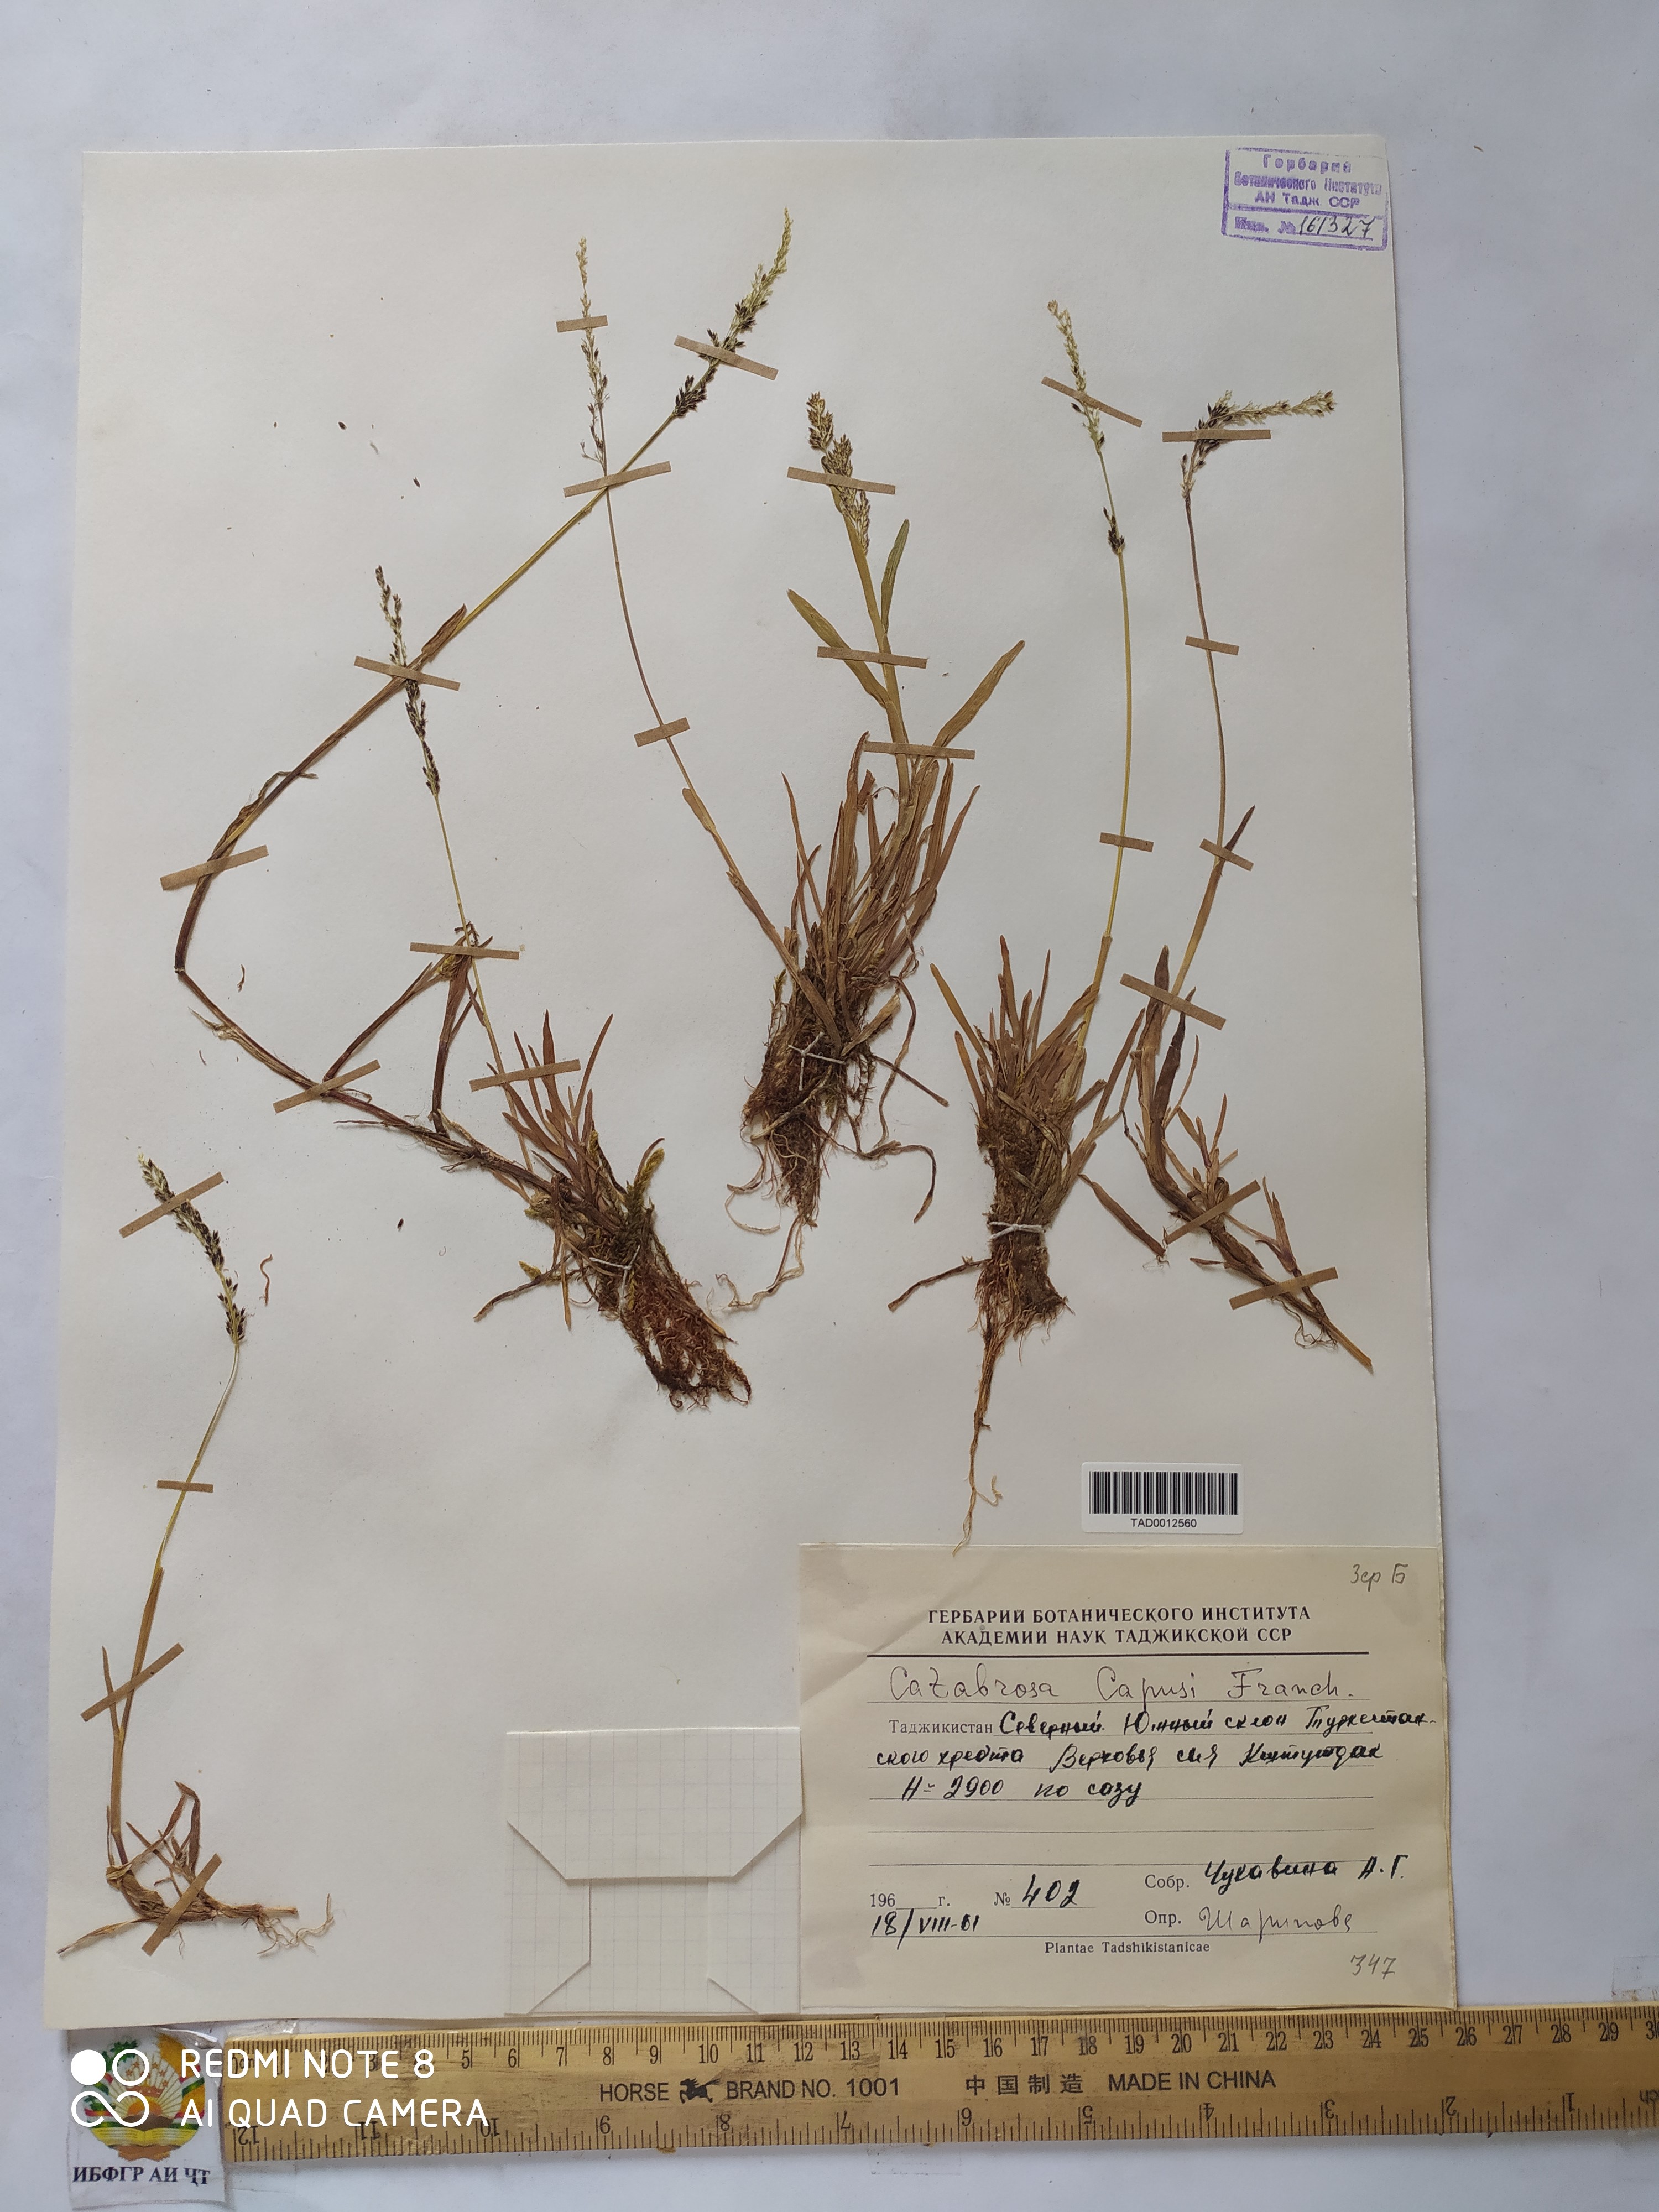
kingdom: Plantae
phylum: Tracheophyta
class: Liliopsida
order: Poales
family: Poaceae
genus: Catabrosa
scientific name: Catabrosa aquatica
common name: Whorl-grass
